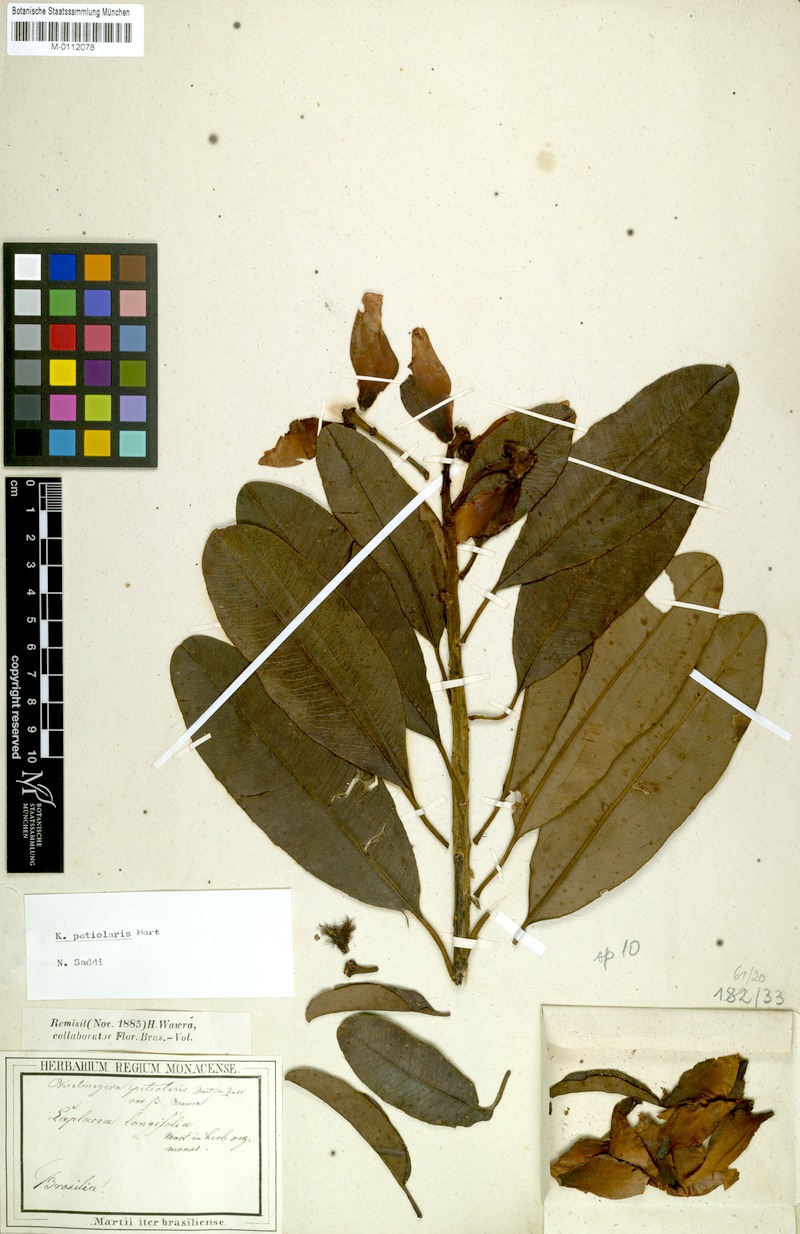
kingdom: Plantae
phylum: Tracheophyta
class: Magnoliopsida
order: Malpighiales
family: Calophyllaceae
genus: Kielmeyera
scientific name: Kielmeyera petiolaris
